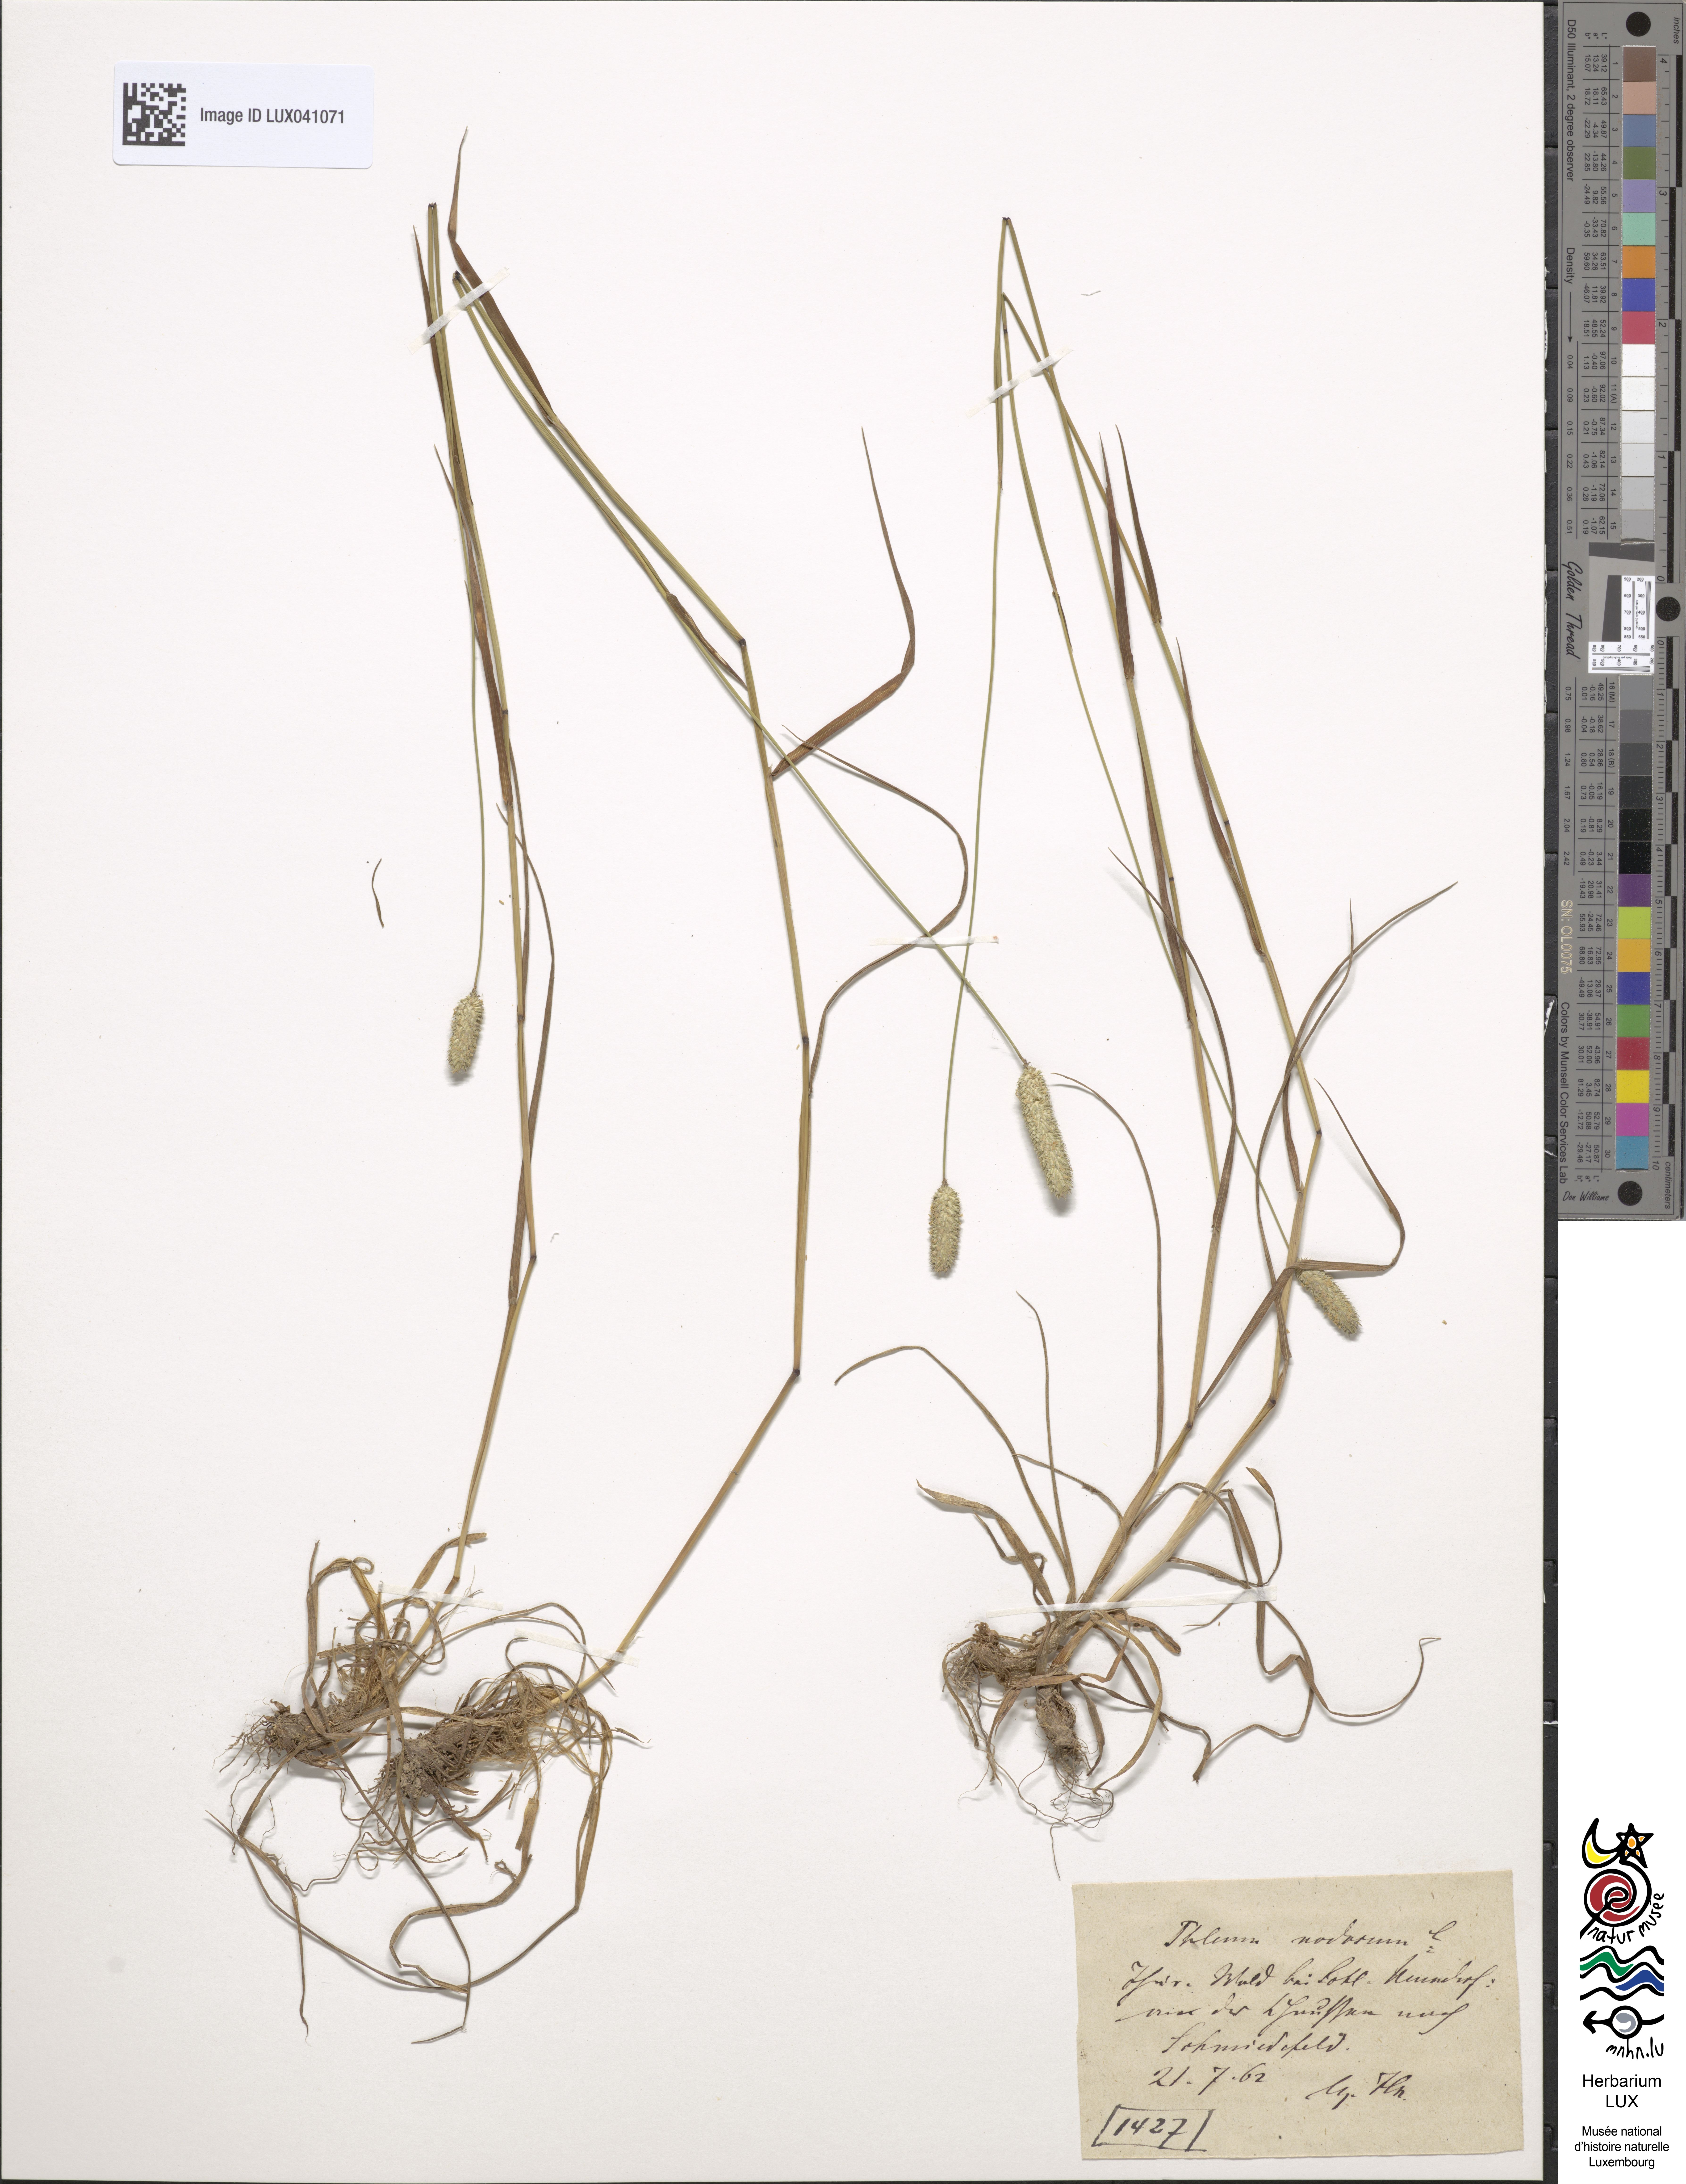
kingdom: Plantae
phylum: Tracheophyta
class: Liliopsida
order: Poales
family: Poaceae
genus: Phleum
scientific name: Phleum pratense
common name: Timothy grass
